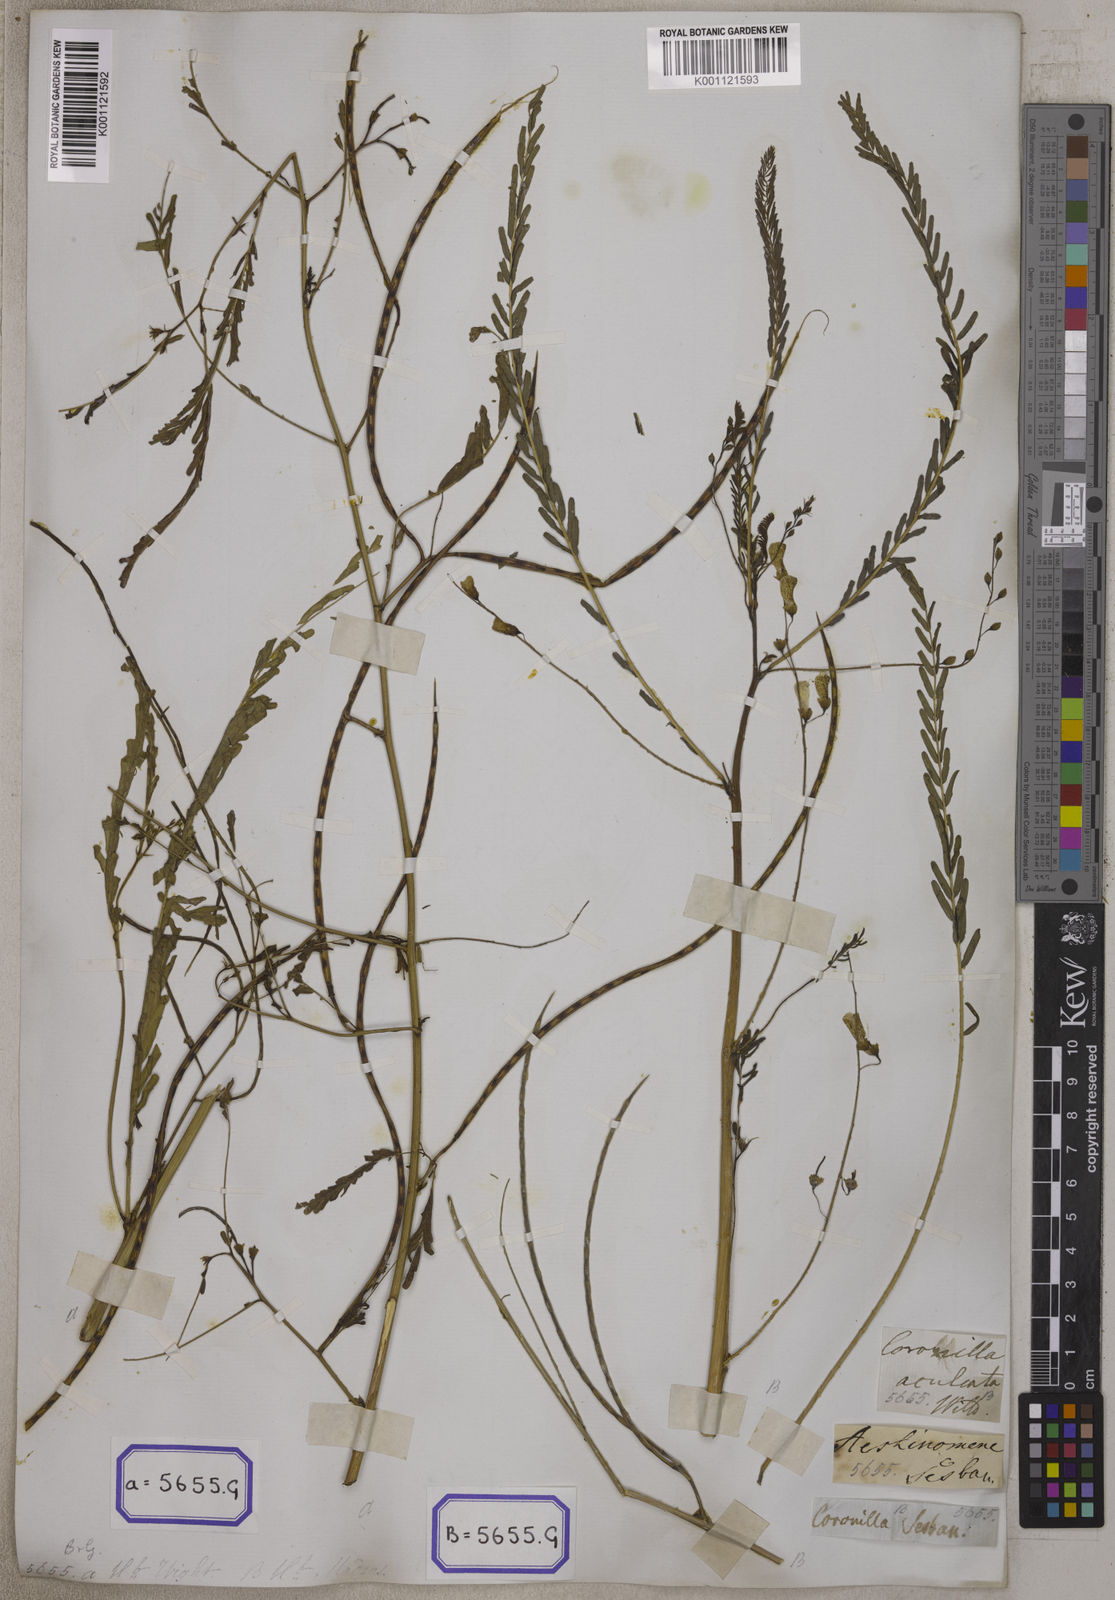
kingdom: Plantae
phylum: Tracheophyta
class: Magnoliopsida
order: Fabales
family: Fabaceae
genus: Sesbania
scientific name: Sesbania bispinosa
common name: Sesbania pea
